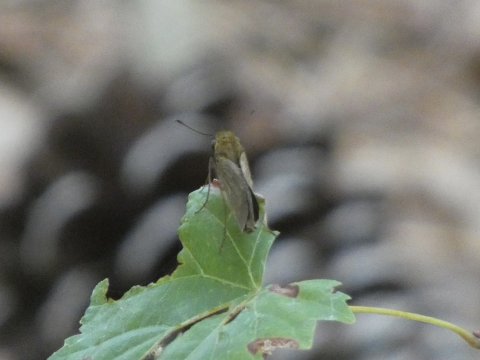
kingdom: Animalia
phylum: Arthropoda
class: Insecta
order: Lepidoptera
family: Hesperiidae
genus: Euphyes
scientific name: Euphyes vestris
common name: Dun Skipper
